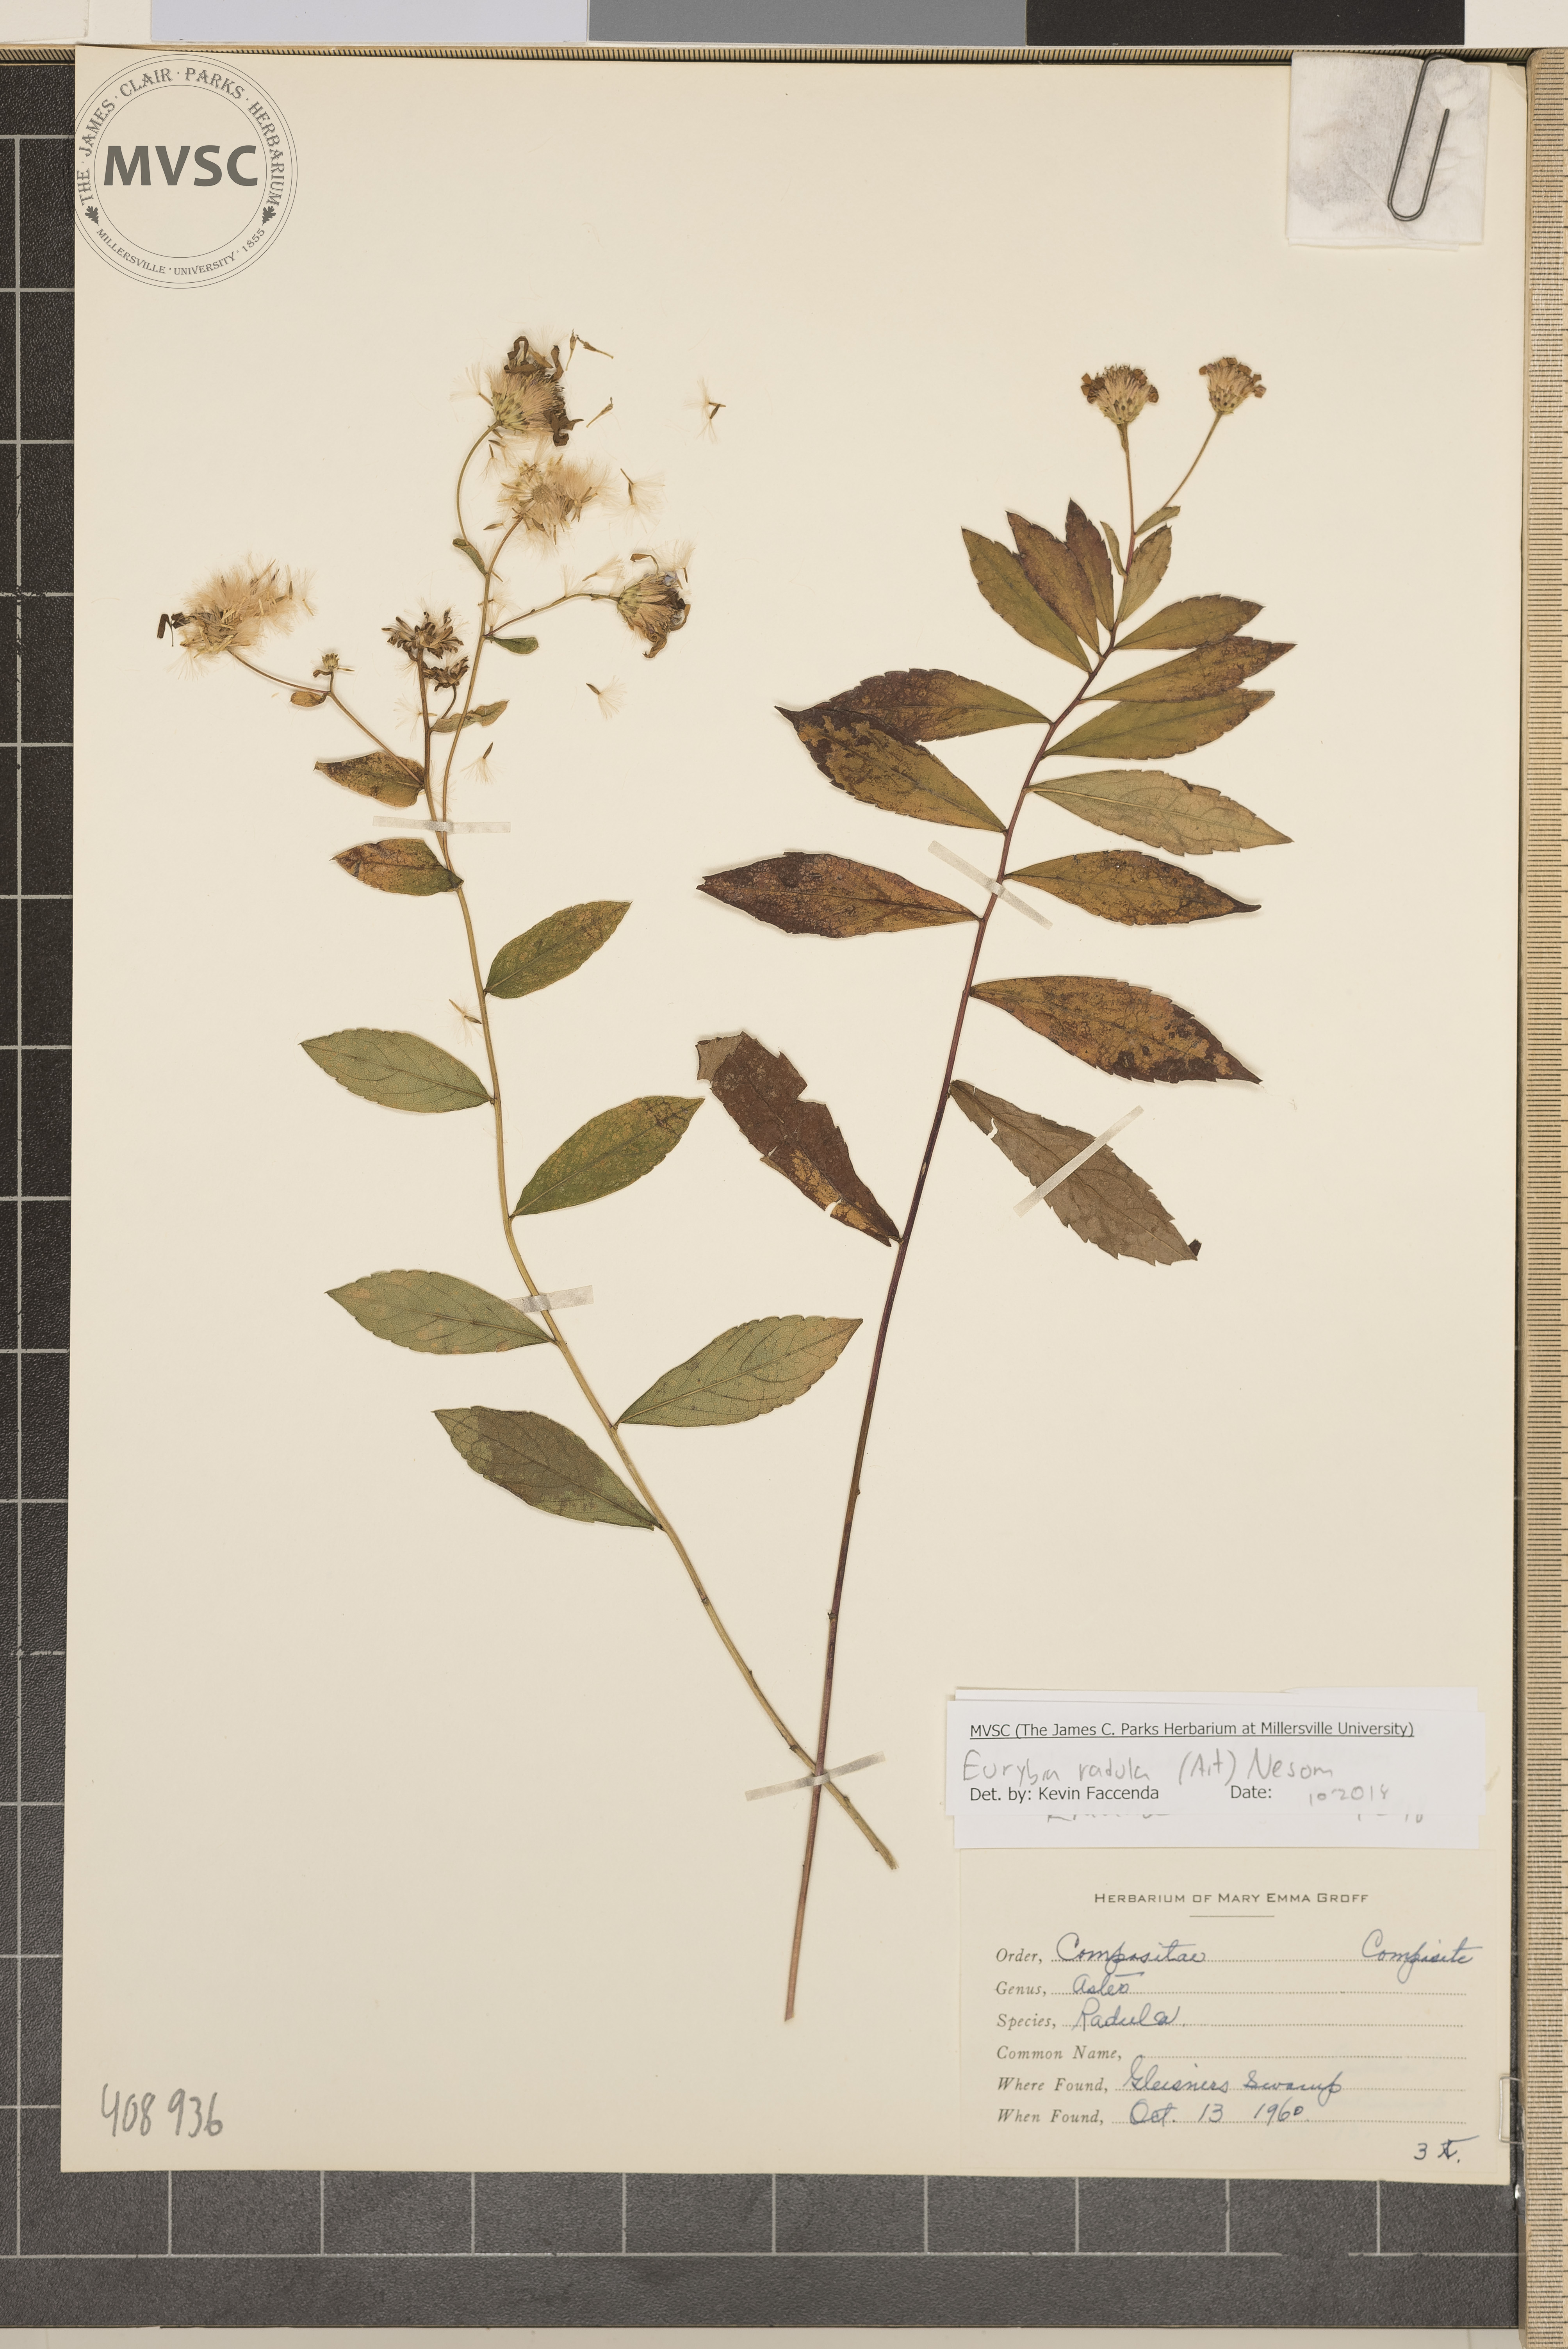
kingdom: Plantae
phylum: Tracheophyta
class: Magnoliopsida
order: Asterales
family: Asteraceae
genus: Eurybia
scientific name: Eurybia radula
